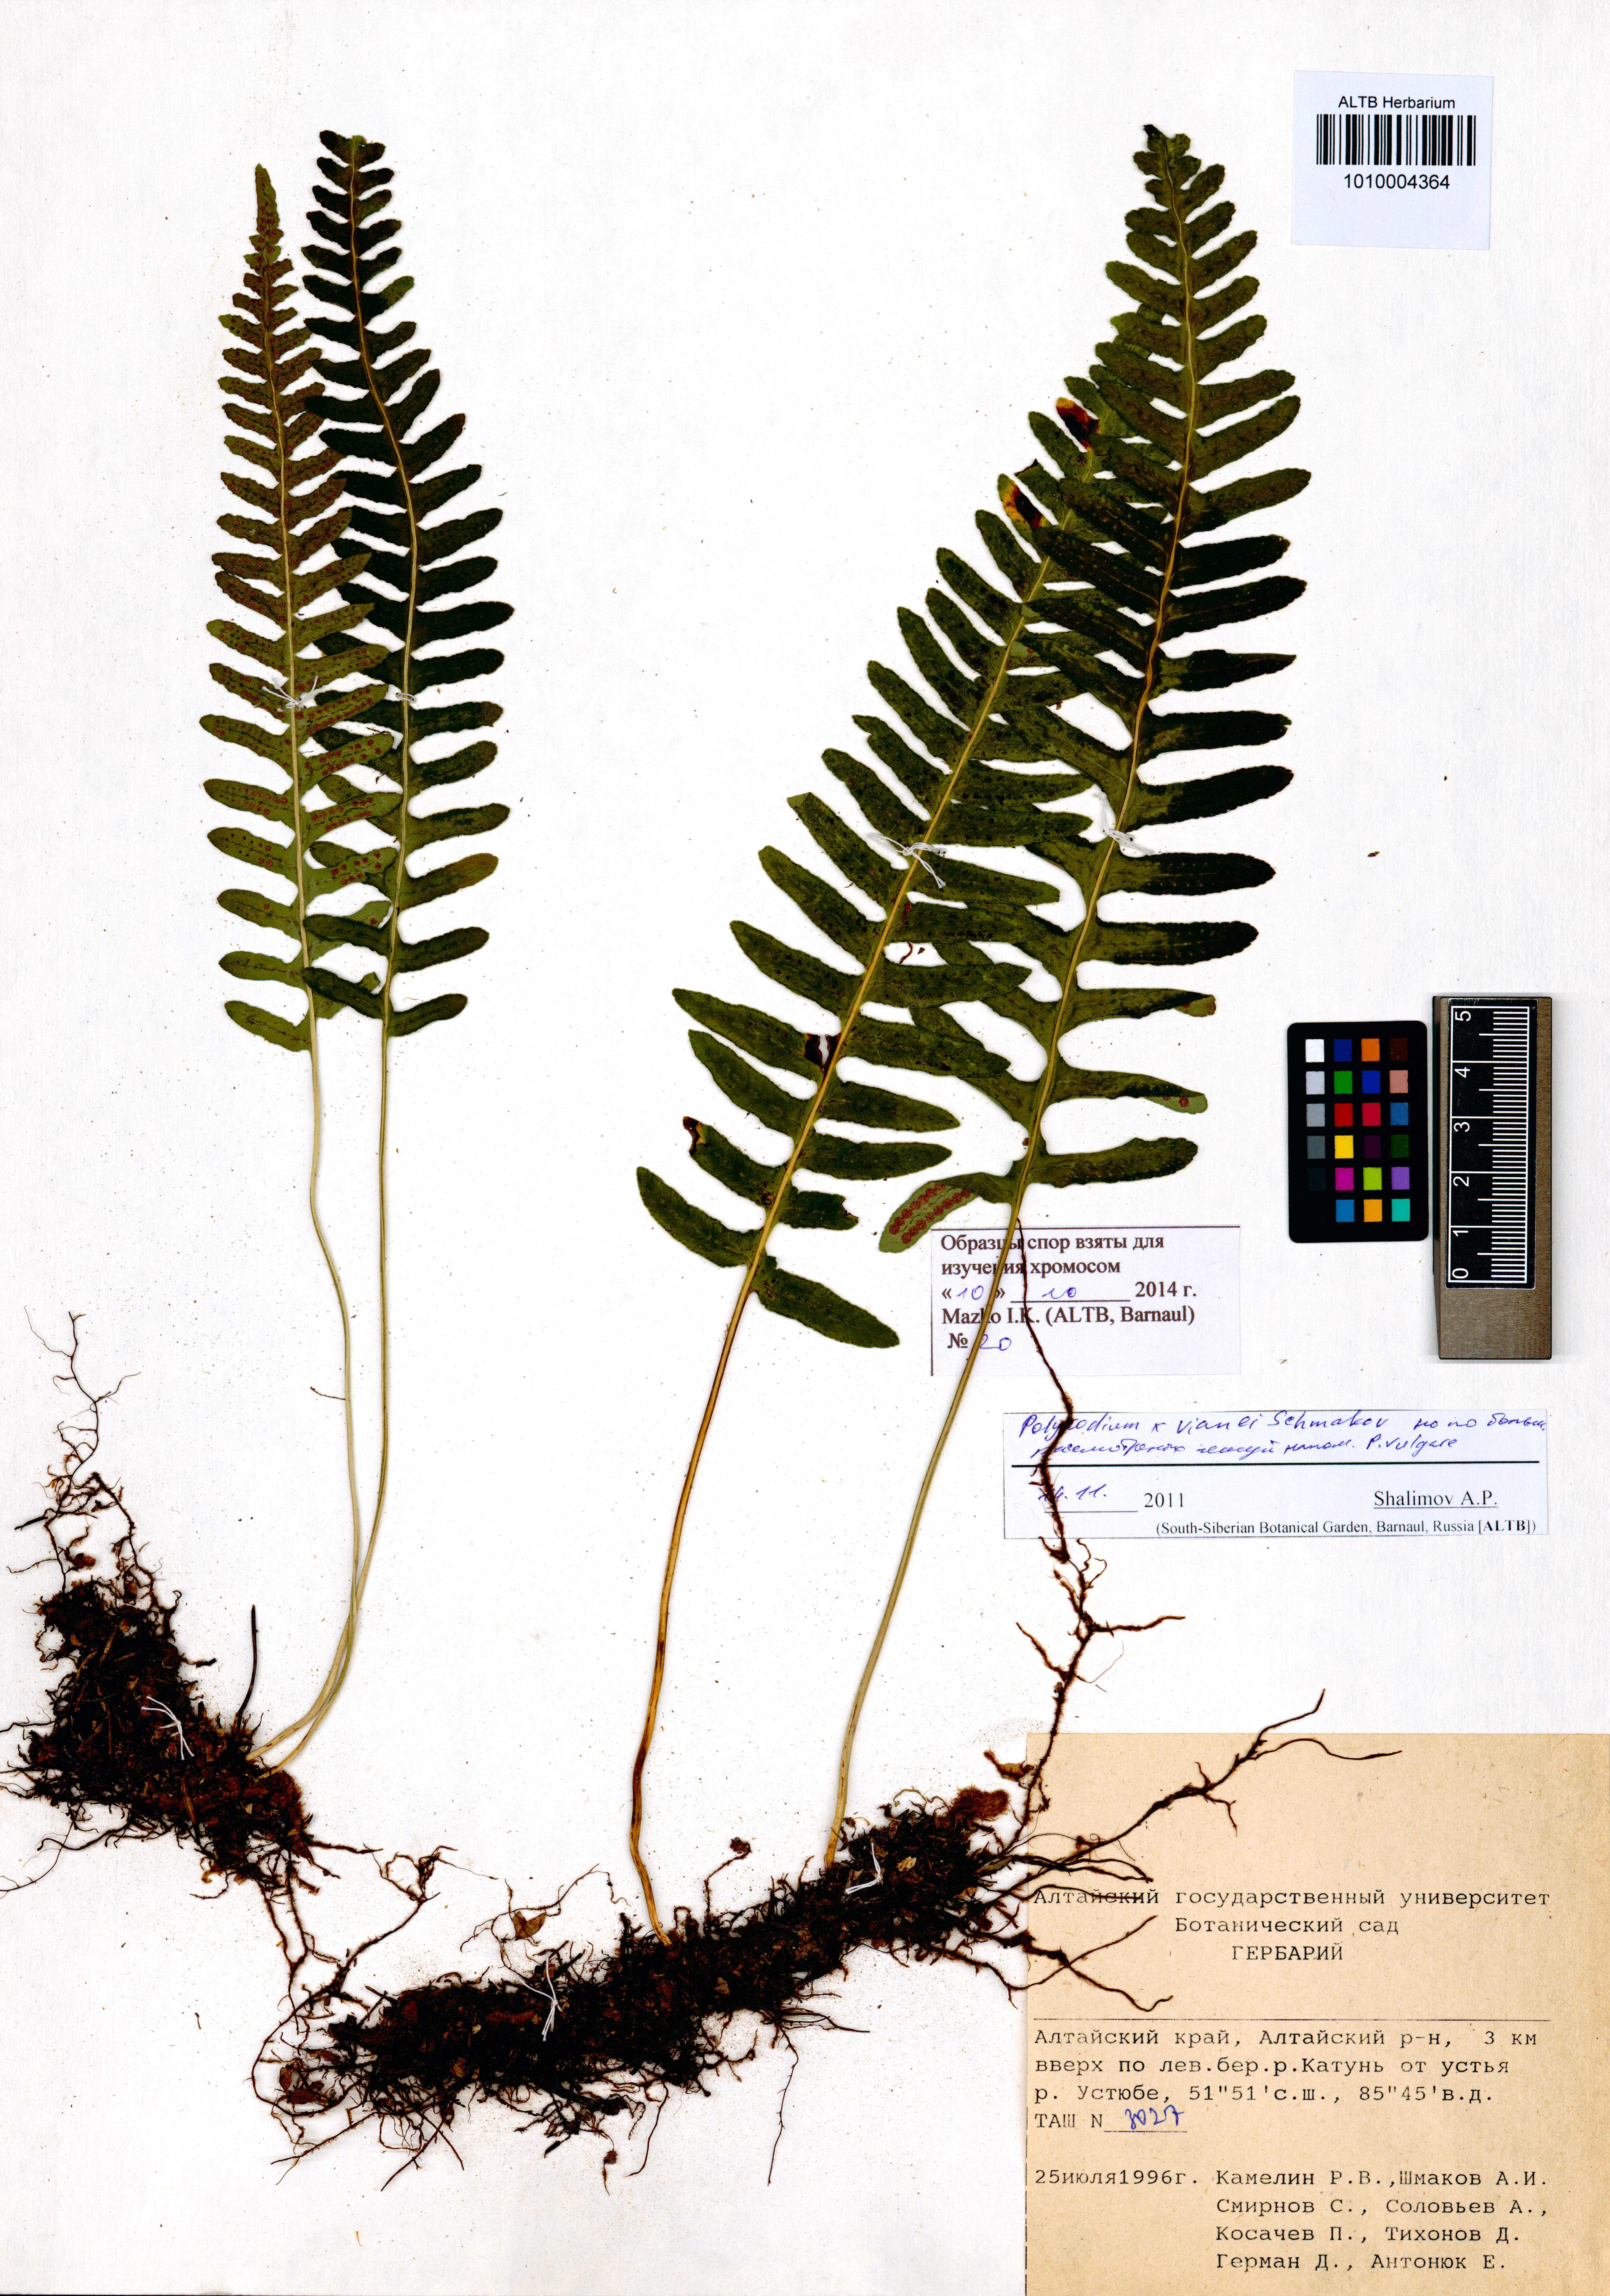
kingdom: Plantae
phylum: Tracheophyta
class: Polypodiopsida
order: Polypodiales
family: Polypodiaceae
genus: Polypodium
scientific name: Polypodium vianei
